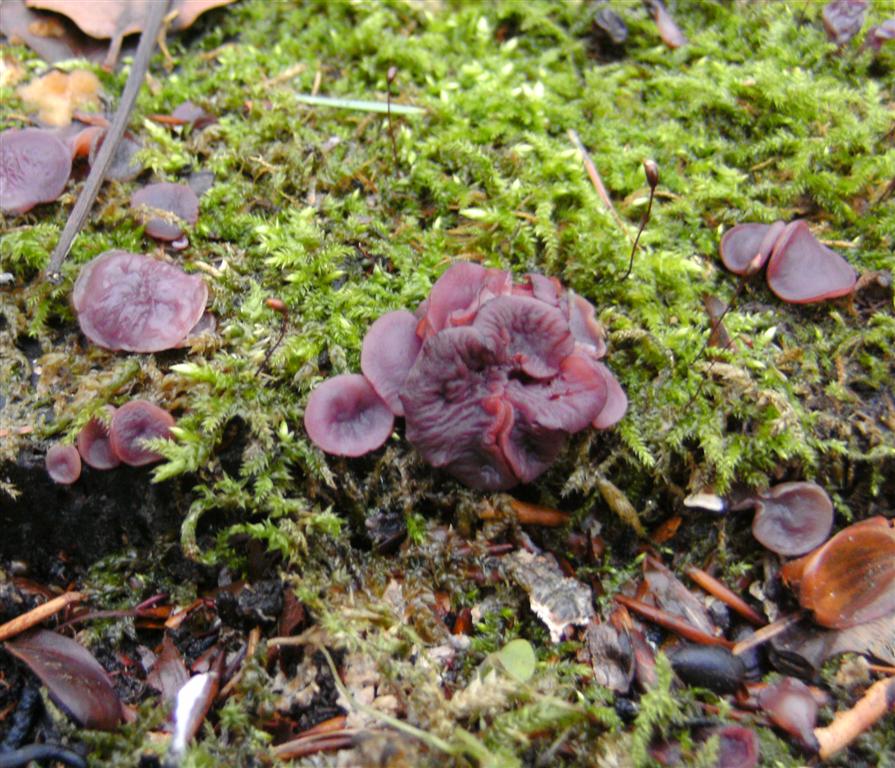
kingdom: Fungi
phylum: Ascomycota
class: Leotiomycetes
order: Helotiales
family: Gelatinodiscaceae
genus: Ascocoryne
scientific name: Ascocoryne cylichnium
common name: stor sejskive
